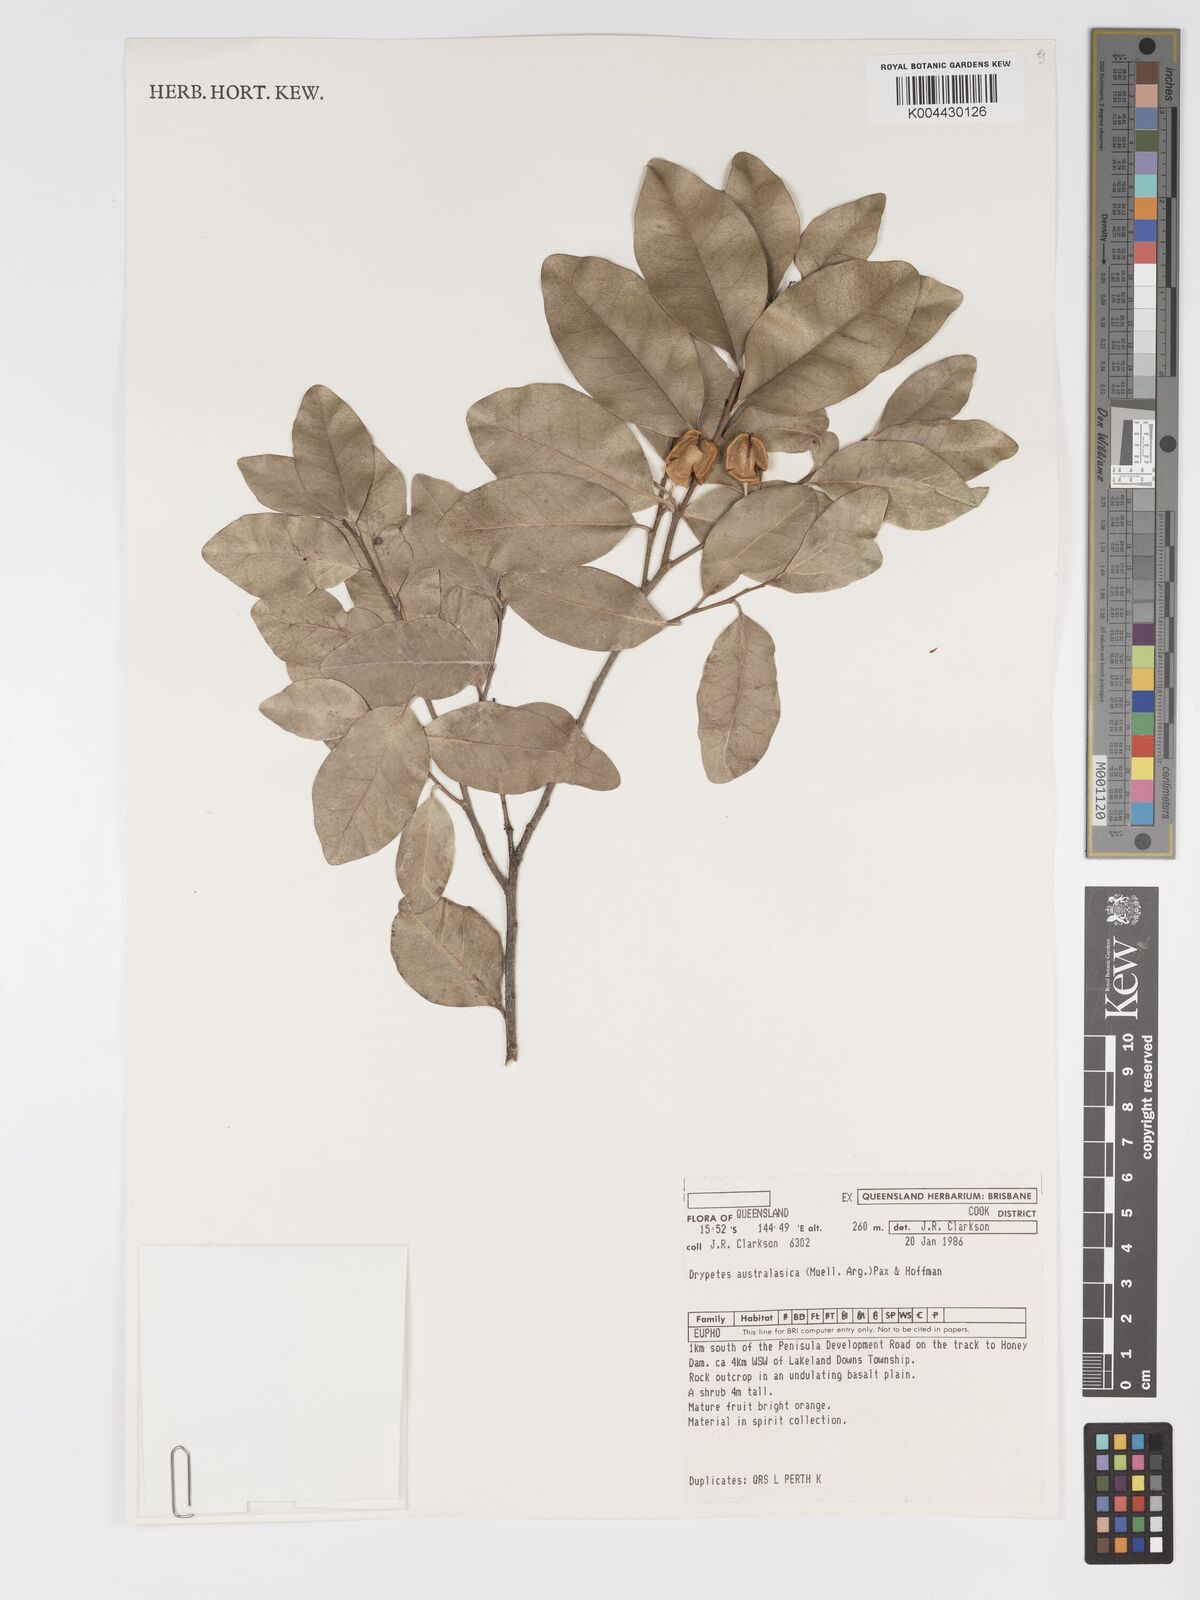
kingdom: Plantae
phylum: Tracheophyta
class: Magnoliopsida
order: Malpighiales
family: Putranjivaceae
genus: Drypetes
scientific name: Drypetes deplanchei
